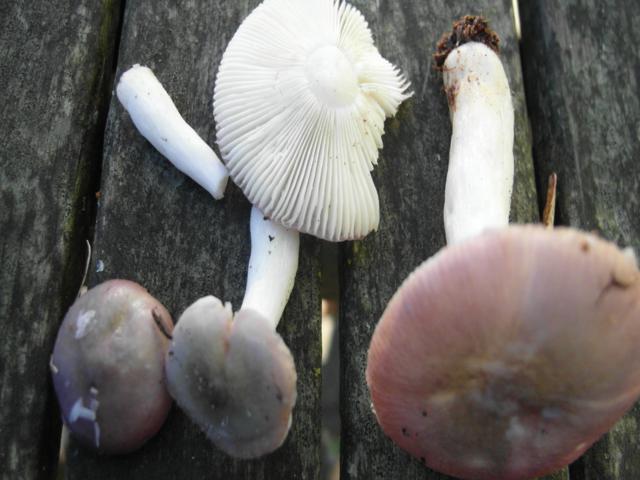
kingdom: Fungi
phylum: Basidiomycota
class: Agaricomycetes
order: Russulales
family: Russulaceae
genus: Russula
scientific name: Russula atrorubens
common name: sortrød skørhat
